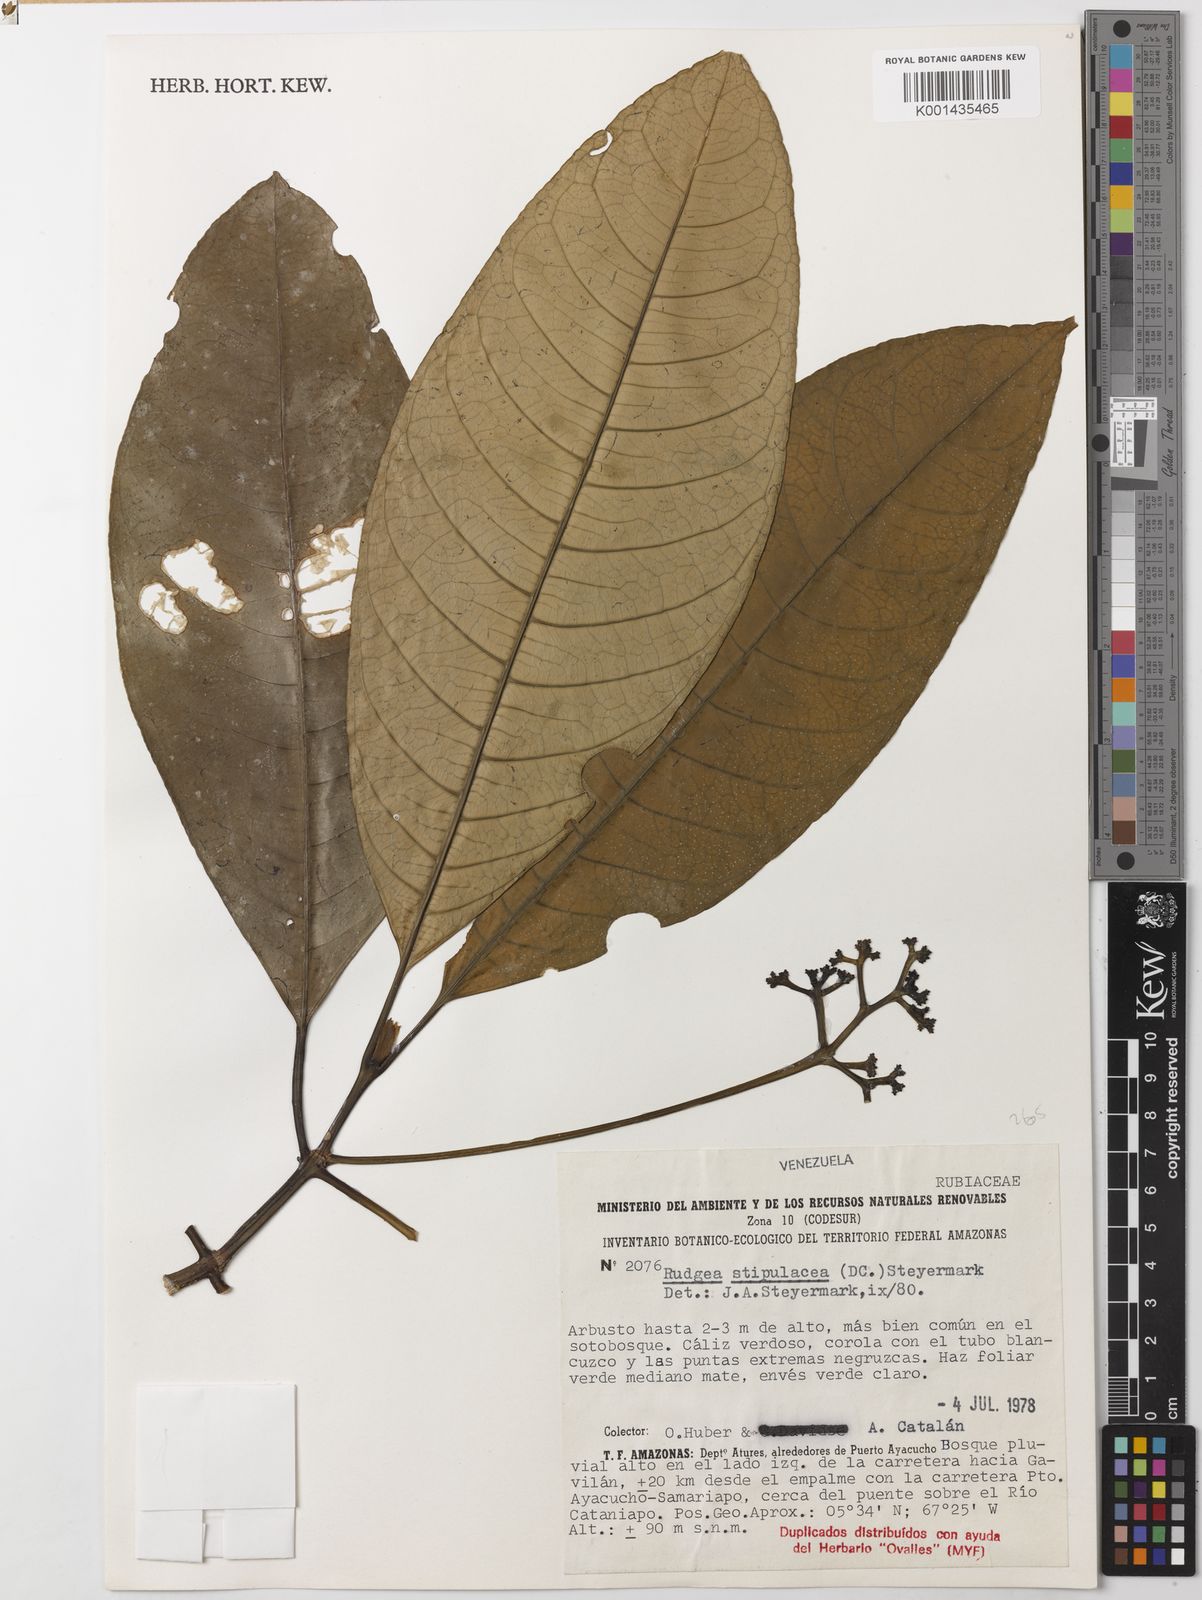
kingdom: Plantae
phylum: Tracheophyta
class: Magnoliopsida
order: Gentianales
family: Rubiaceae
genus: Rudgea
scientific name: Rudgea stipulacea
